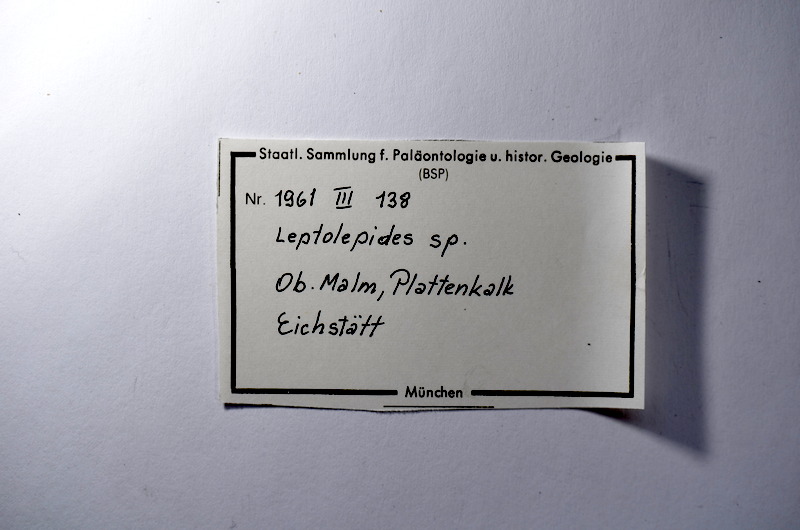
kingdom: Animalia
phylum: Chordata
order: Salmoniformes
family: Orthogonikleithridae
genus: Leptolepides
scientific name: Leptolepides
